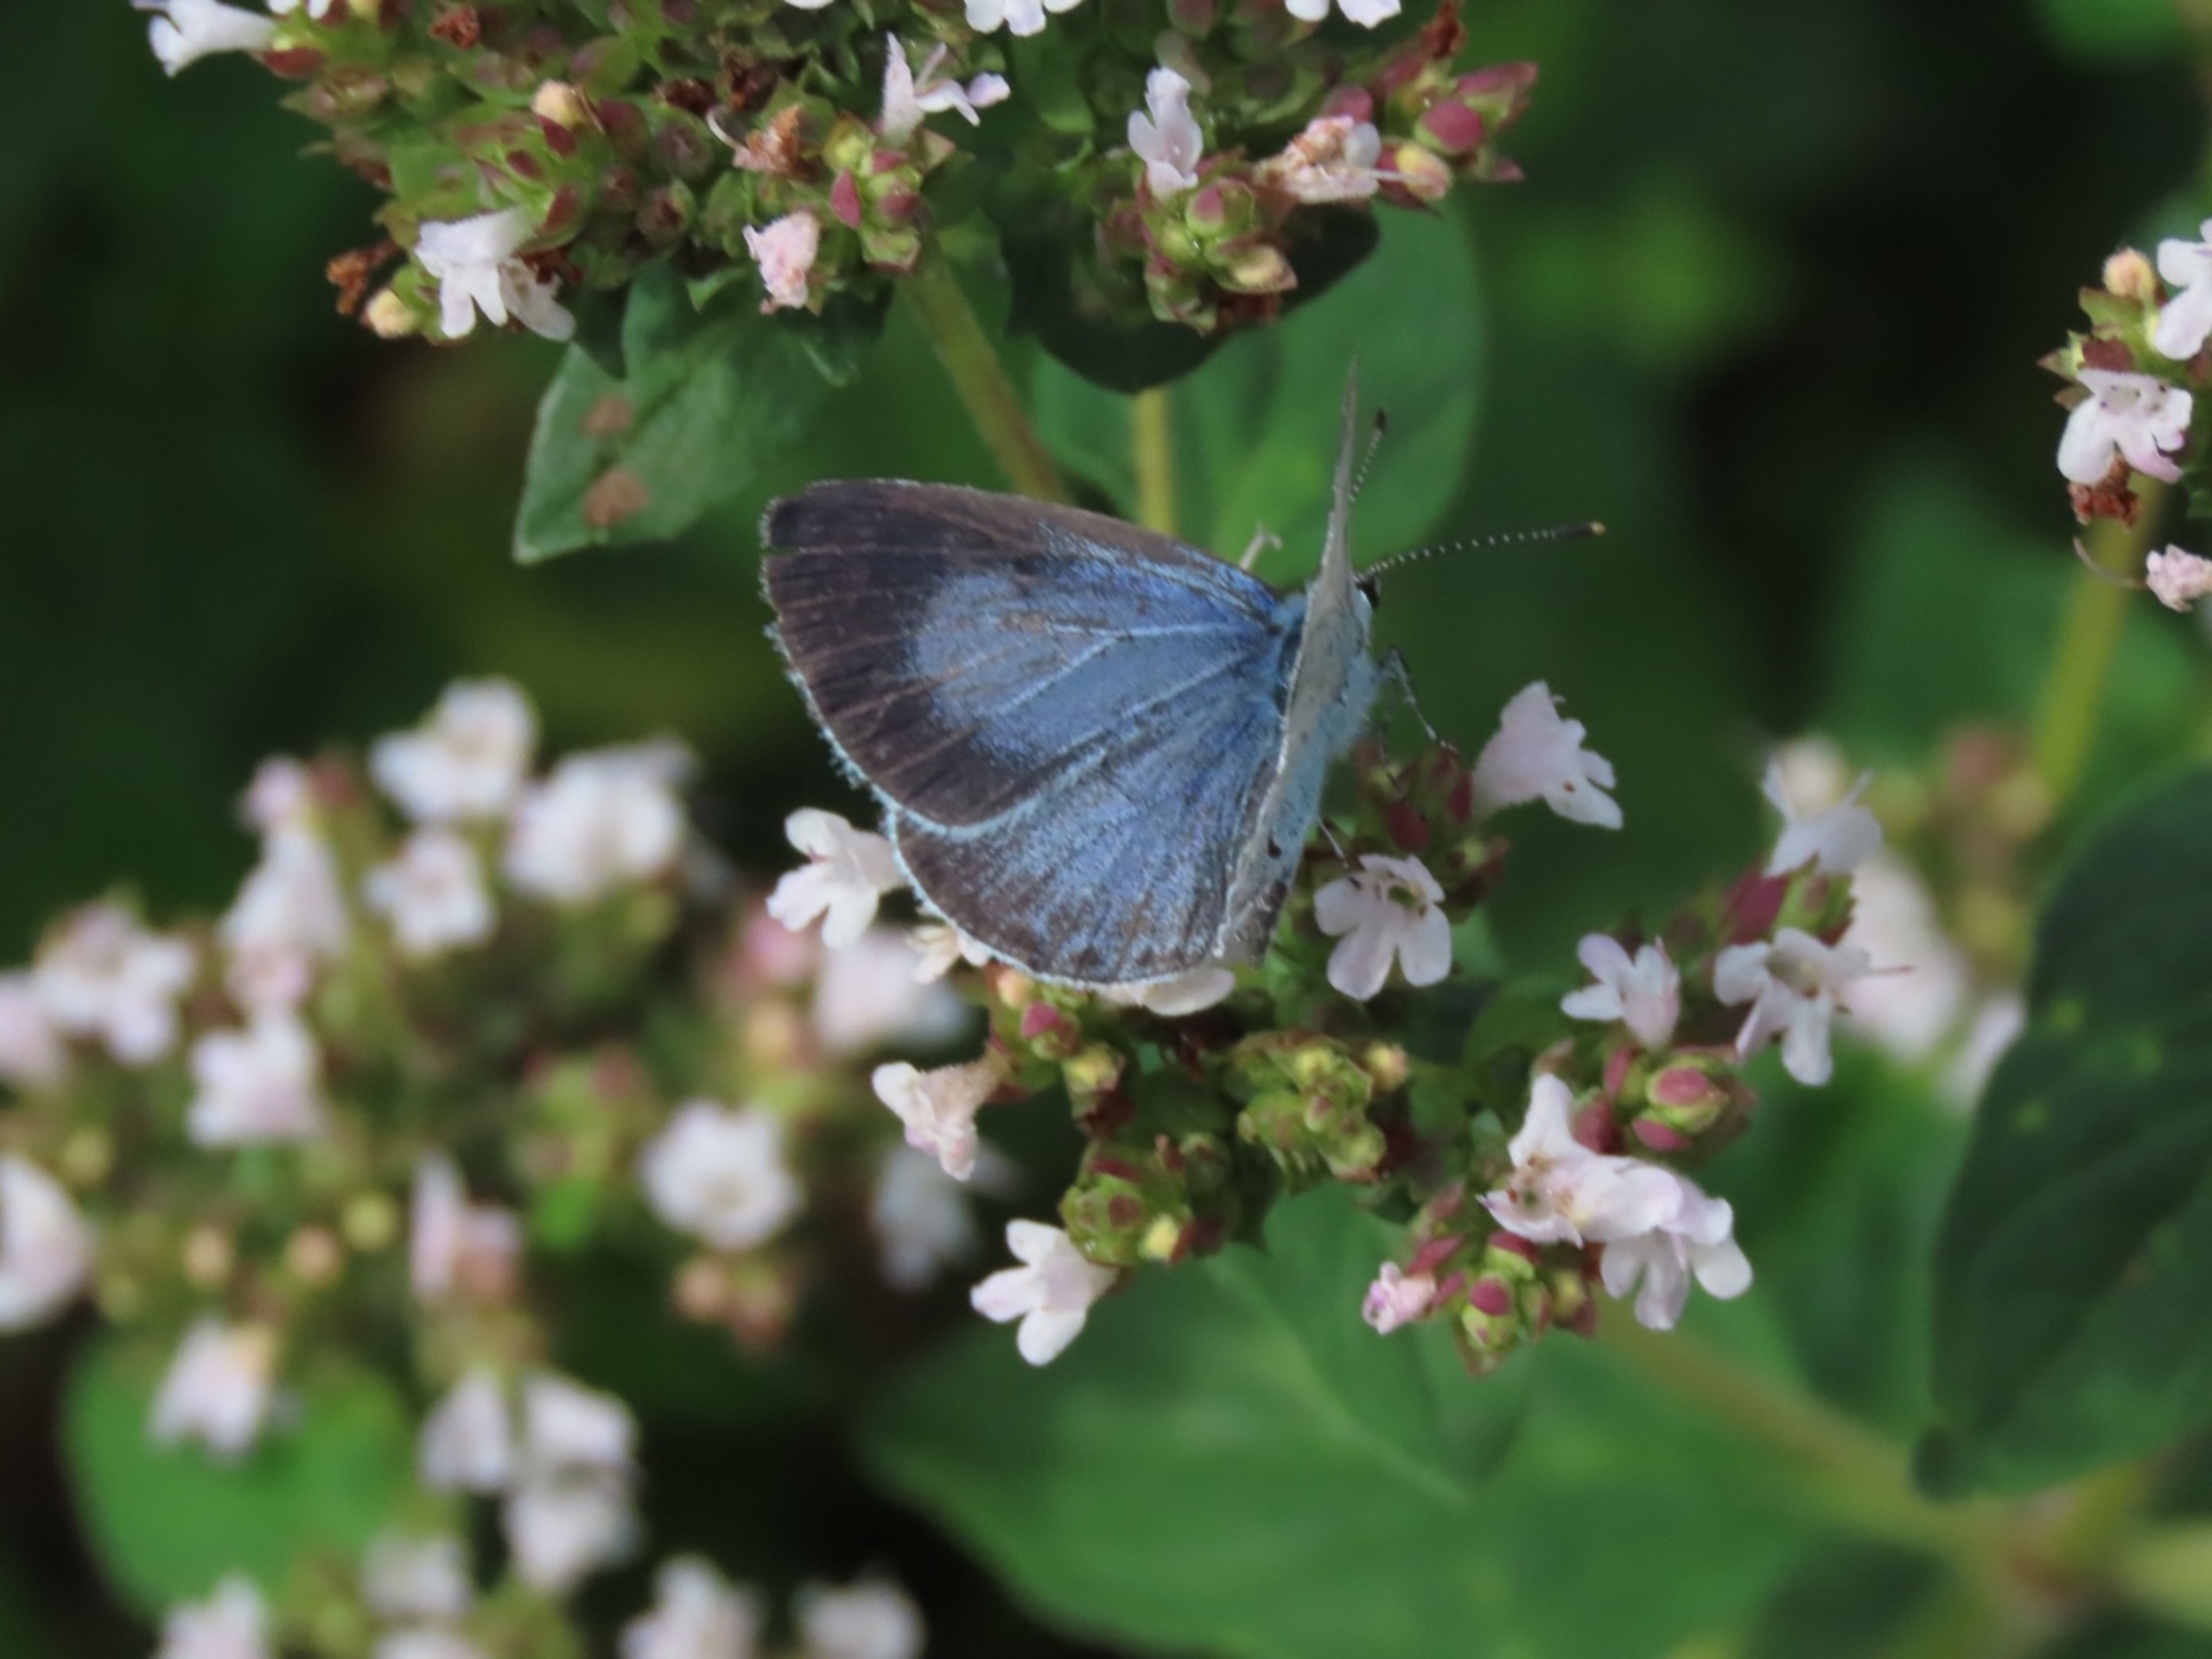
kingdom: Animalia
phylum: Arthropoda
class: Insecta
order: Lepidoptera
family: Lycaenidae
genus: Celastrina
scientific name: Celastrina argiolus
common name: Skovblåfugl
